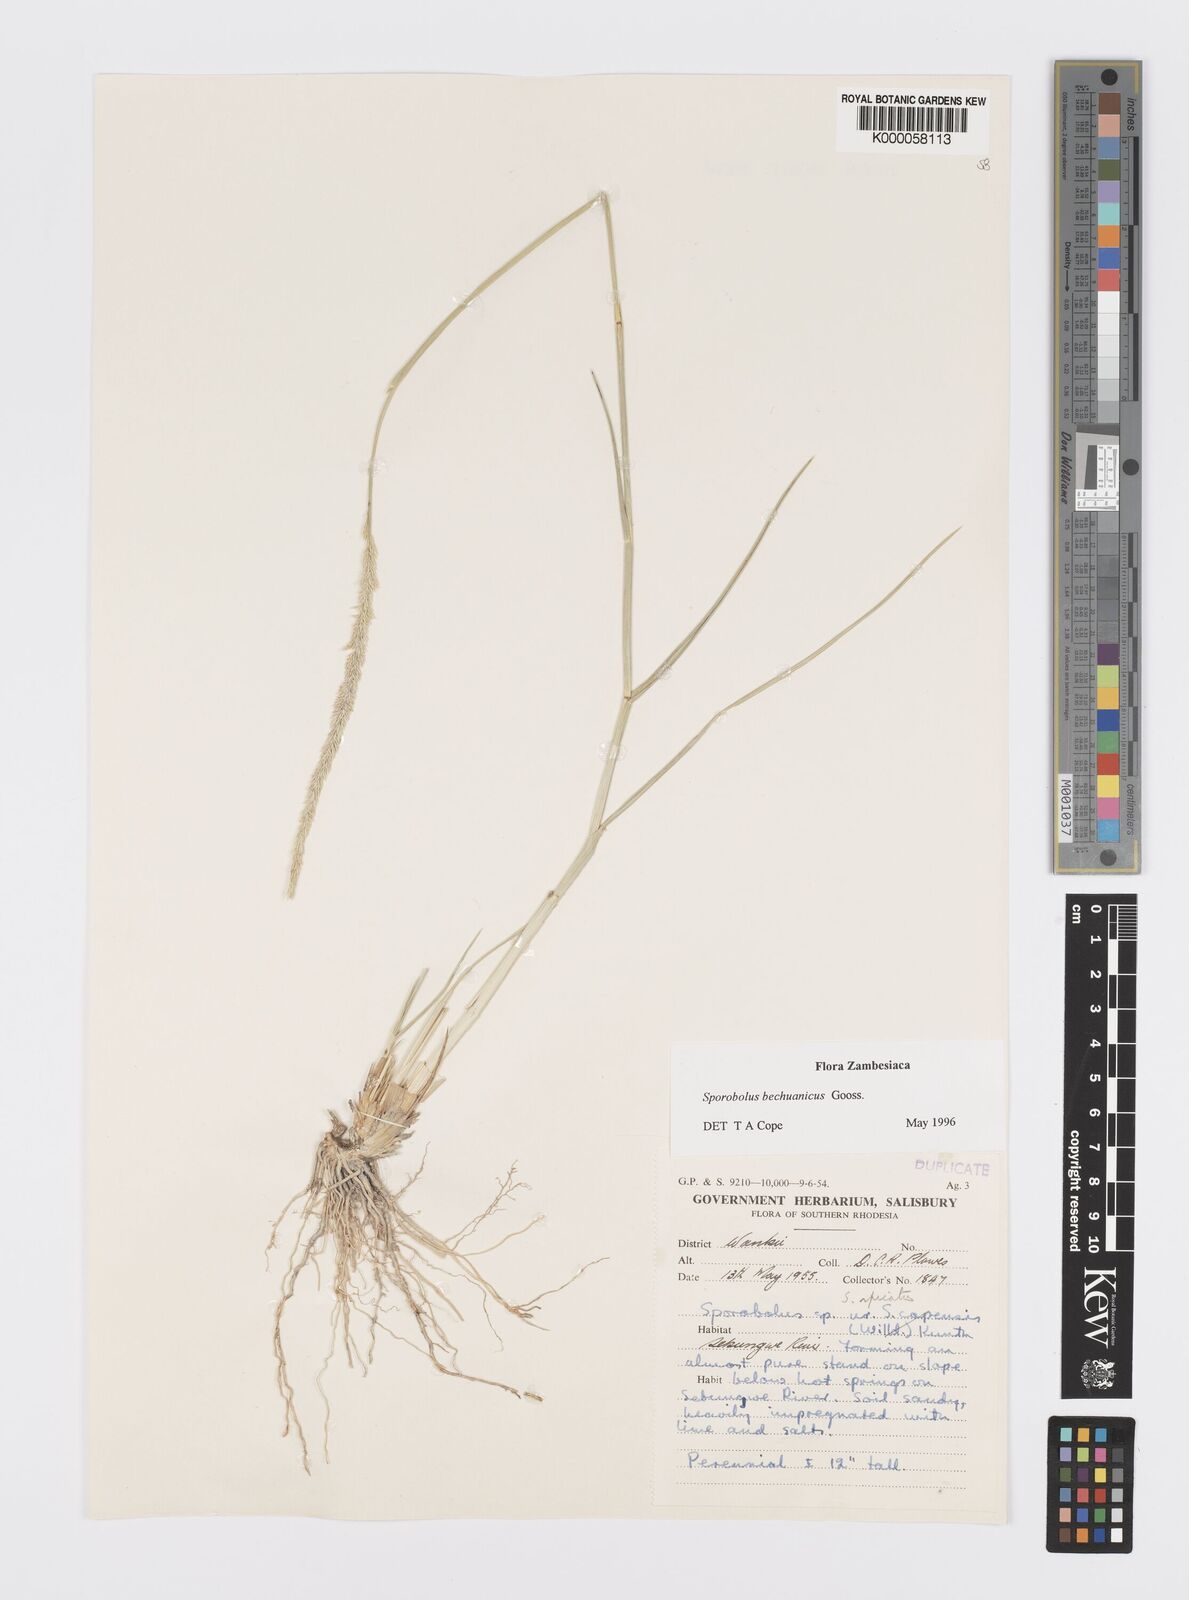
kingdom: Plantae
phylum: Tracheophyta
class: Liliopsida
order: Poales
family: Poaceae
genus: Sporobolus
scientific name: Sporobolus bechuanicus
